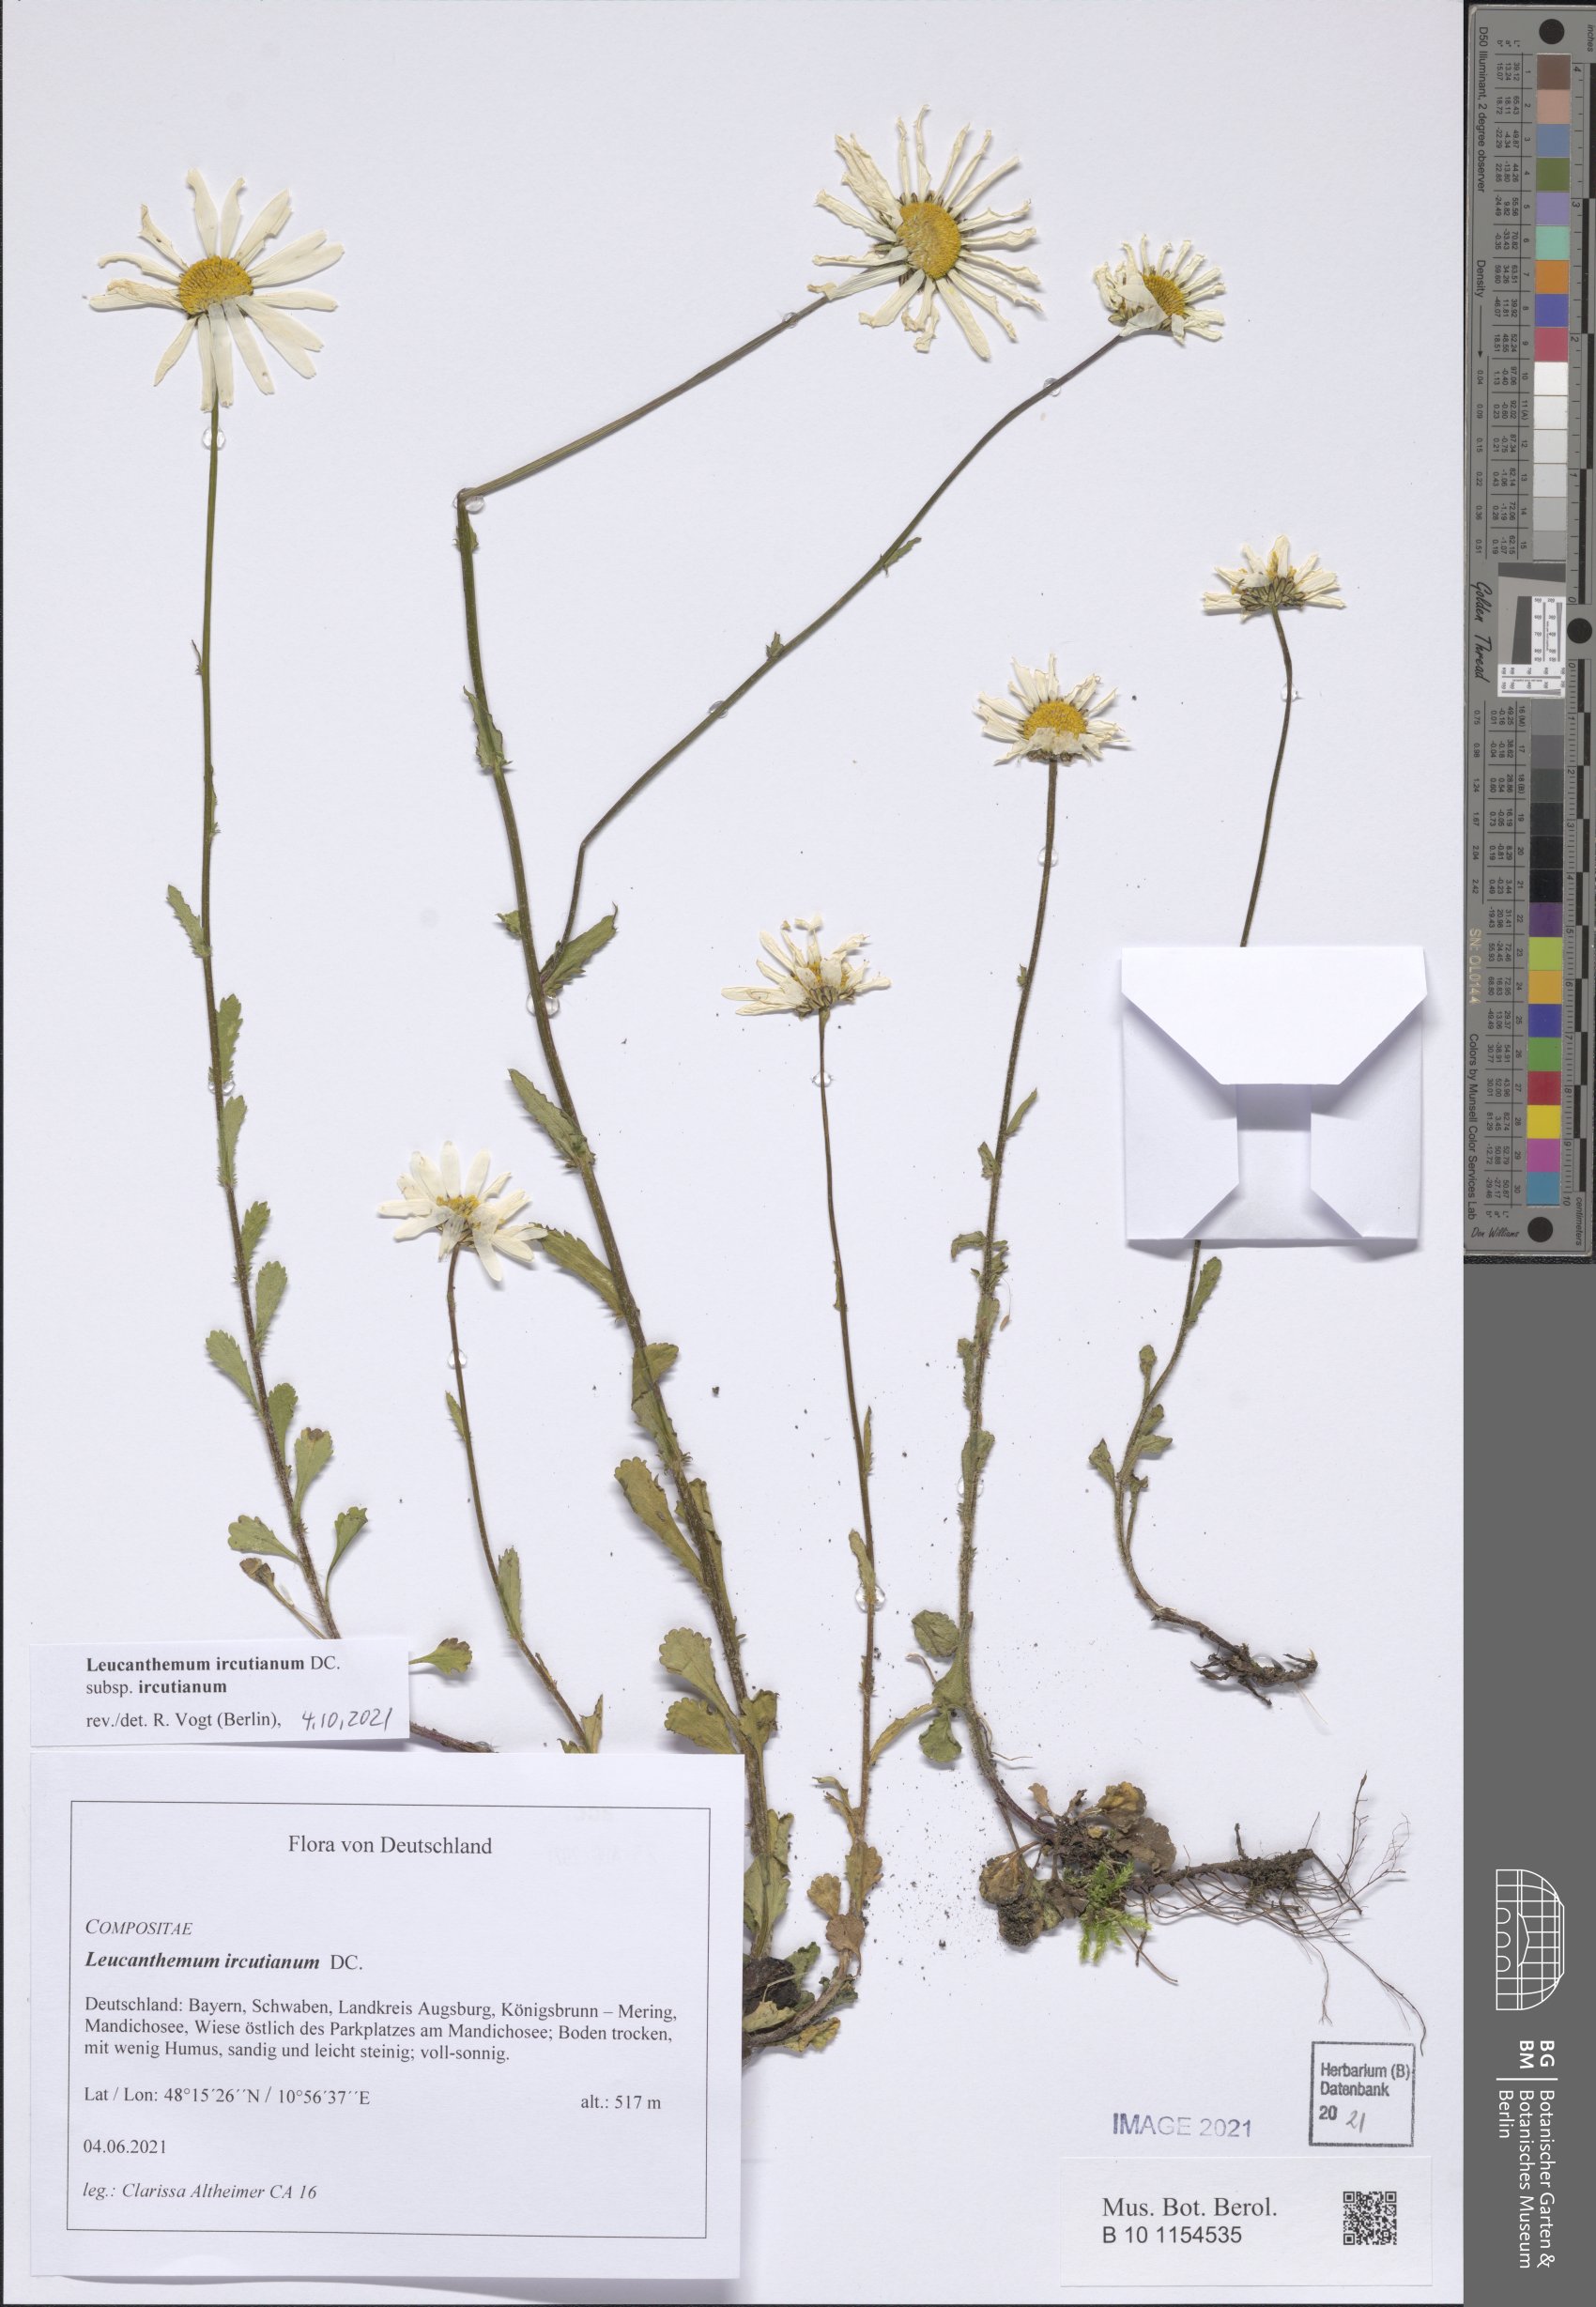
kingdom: Plantae
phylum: Tracheophyta
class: Magnoliopsida
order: Asterales
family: Asteraceae
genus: Leucanthemum
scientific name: Leucanthemum ircutianum
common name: Daisy
